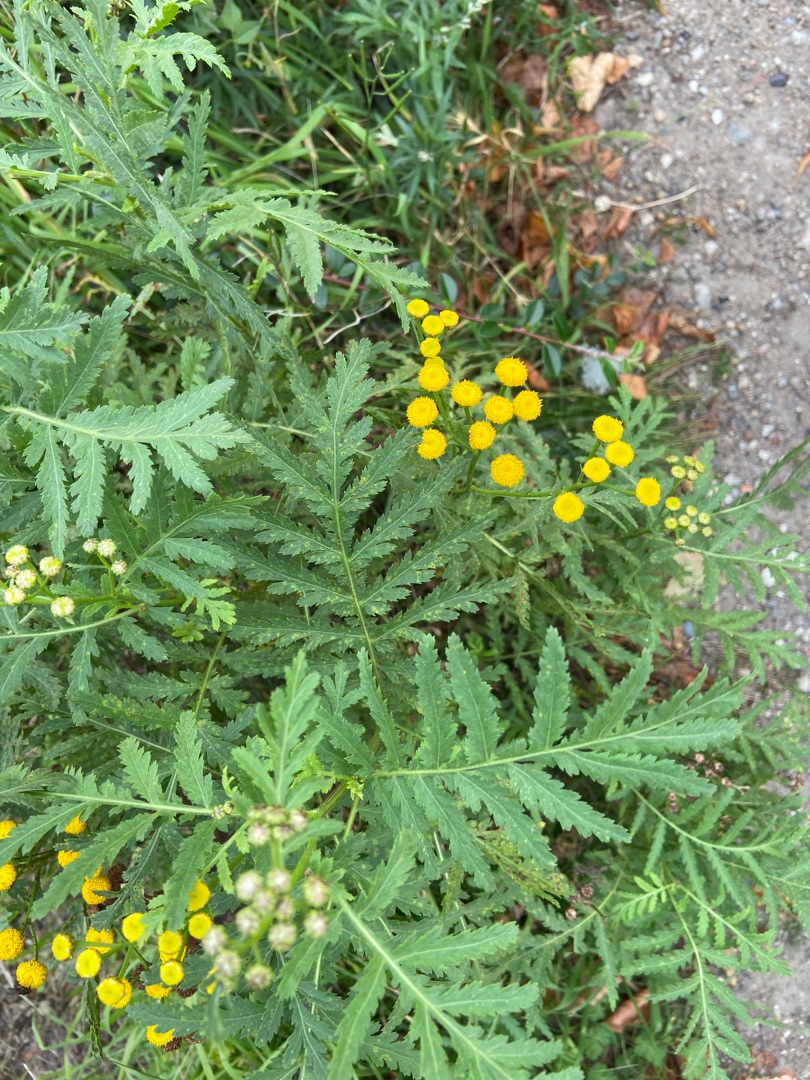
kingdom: Plantae
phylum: Tracheophyta
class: Magnoliopsida
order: Asterales
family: Asteraceae
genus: Tanacetum
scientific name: Tanacetum vulgare
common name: Rejnfan
